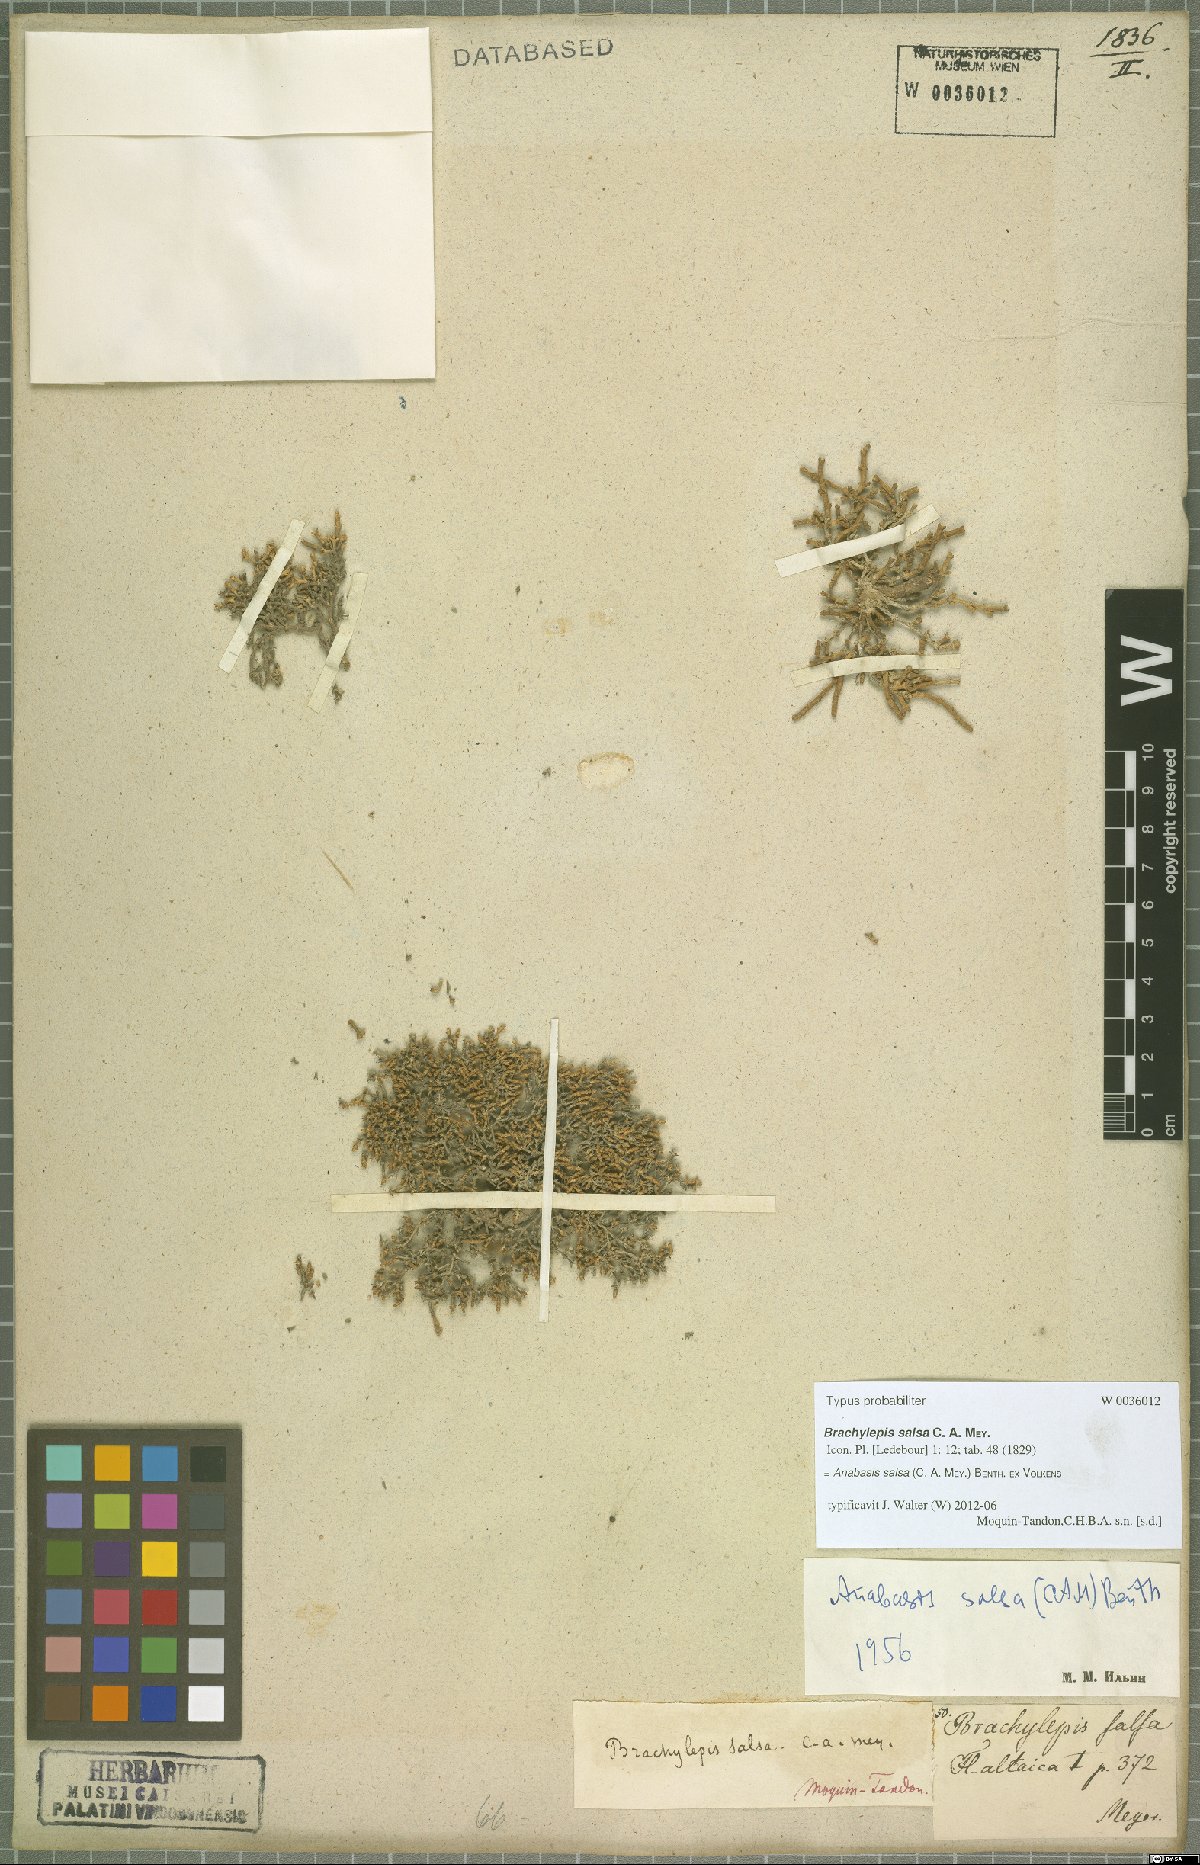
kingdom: Plantae
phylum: Tracheophyta
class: Magnoliopsida
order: Caryophyllales
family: Amaranthaceae
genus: Anabasis
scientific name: Anabasis salsa
